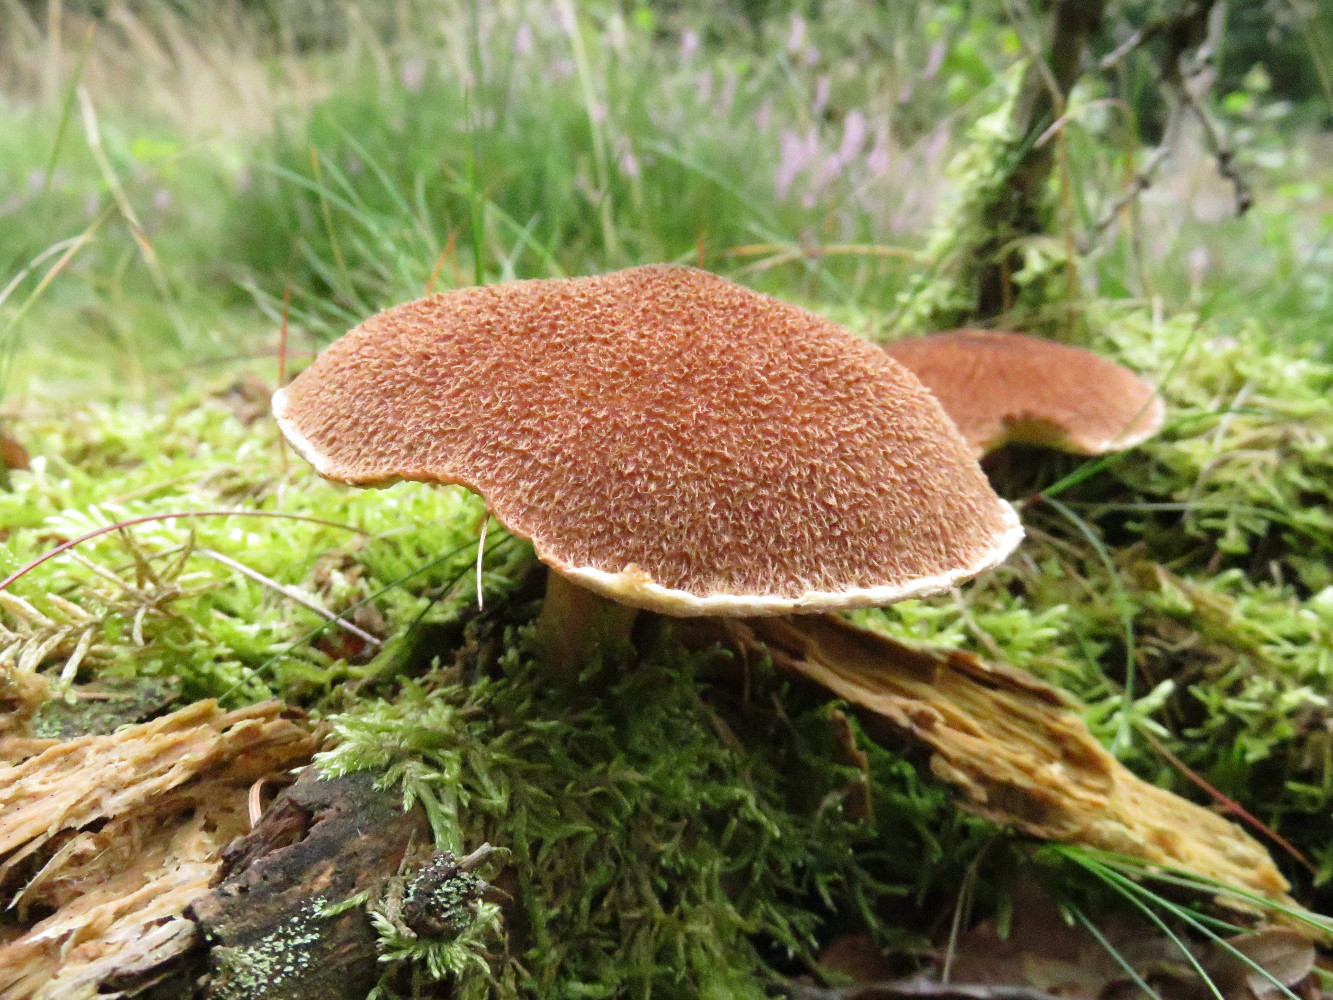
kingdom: Fungi
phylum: Basidiomycota
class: Agaricomycetes
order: Boletales
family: Suillaceae
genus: Suillus
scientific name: Suillus cavipes
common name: hulstokket slimrørhat
